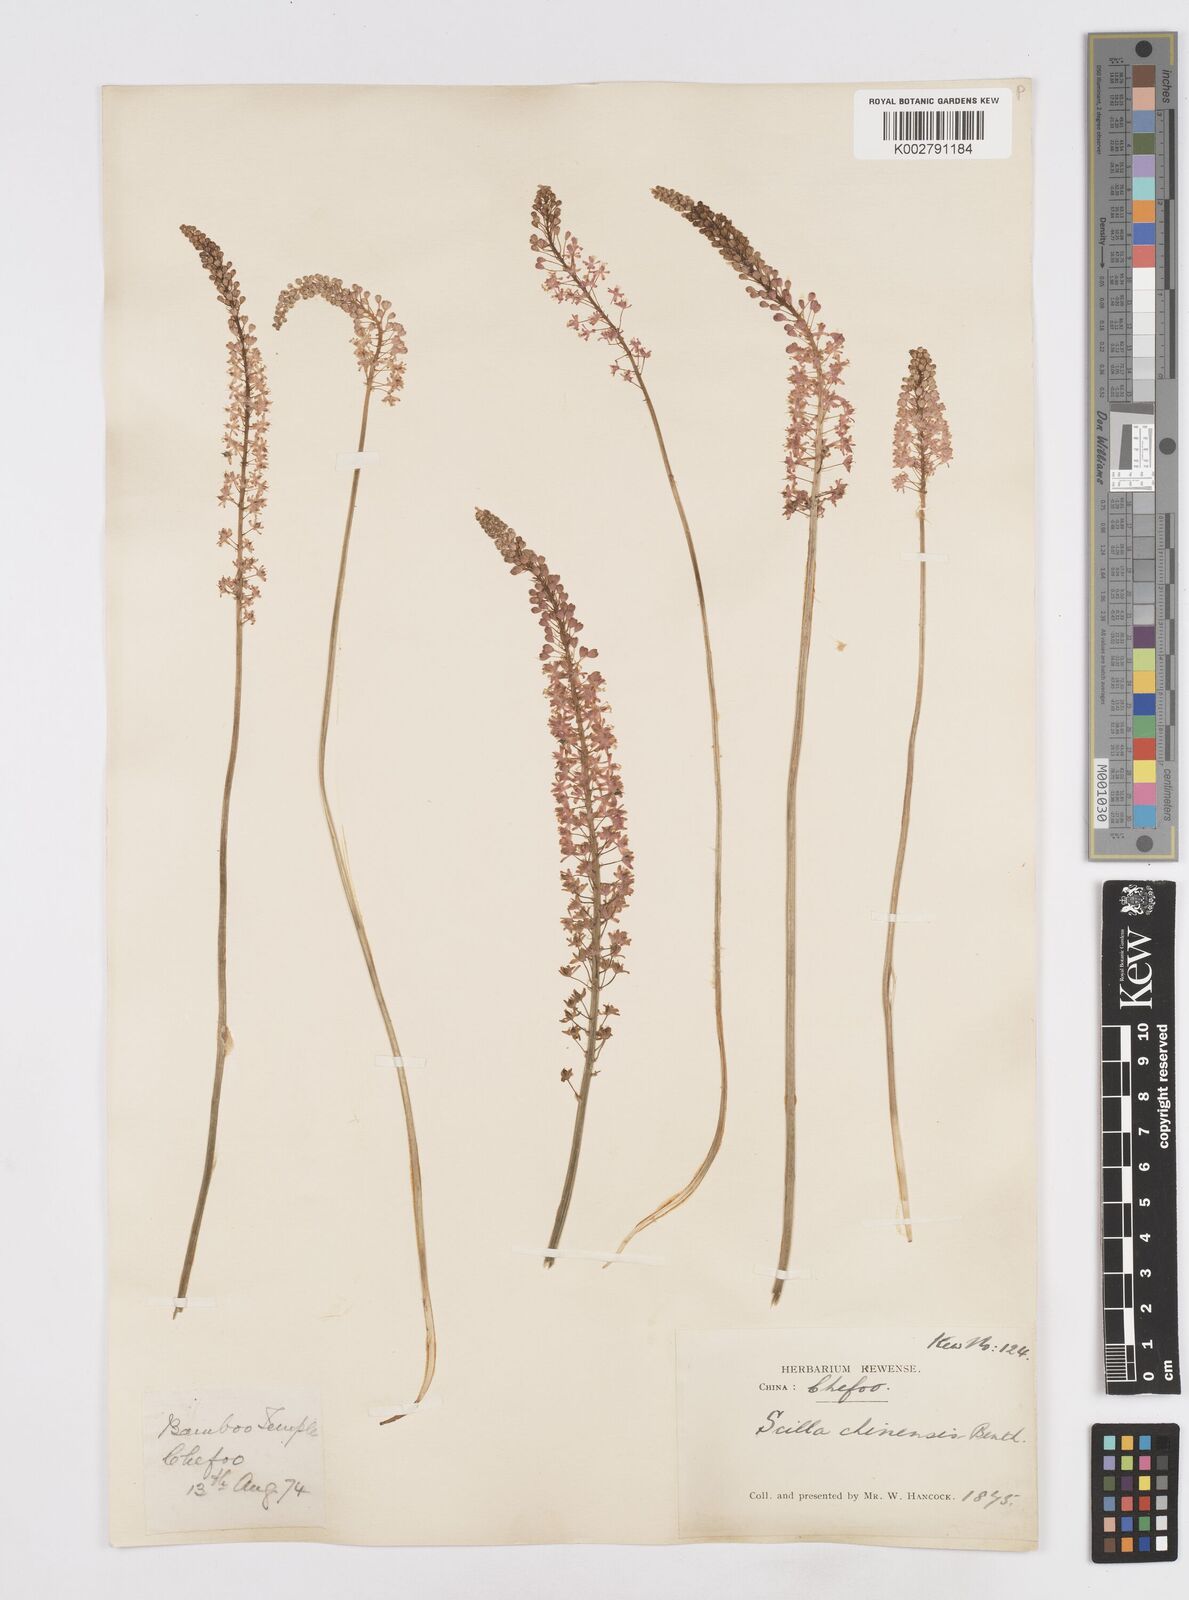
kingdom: Plantae
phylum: Tracheophyta
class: Liliopsida
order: Asparagales
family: Asparagaceae
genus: Barnardia
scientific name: Barnardia japonica
